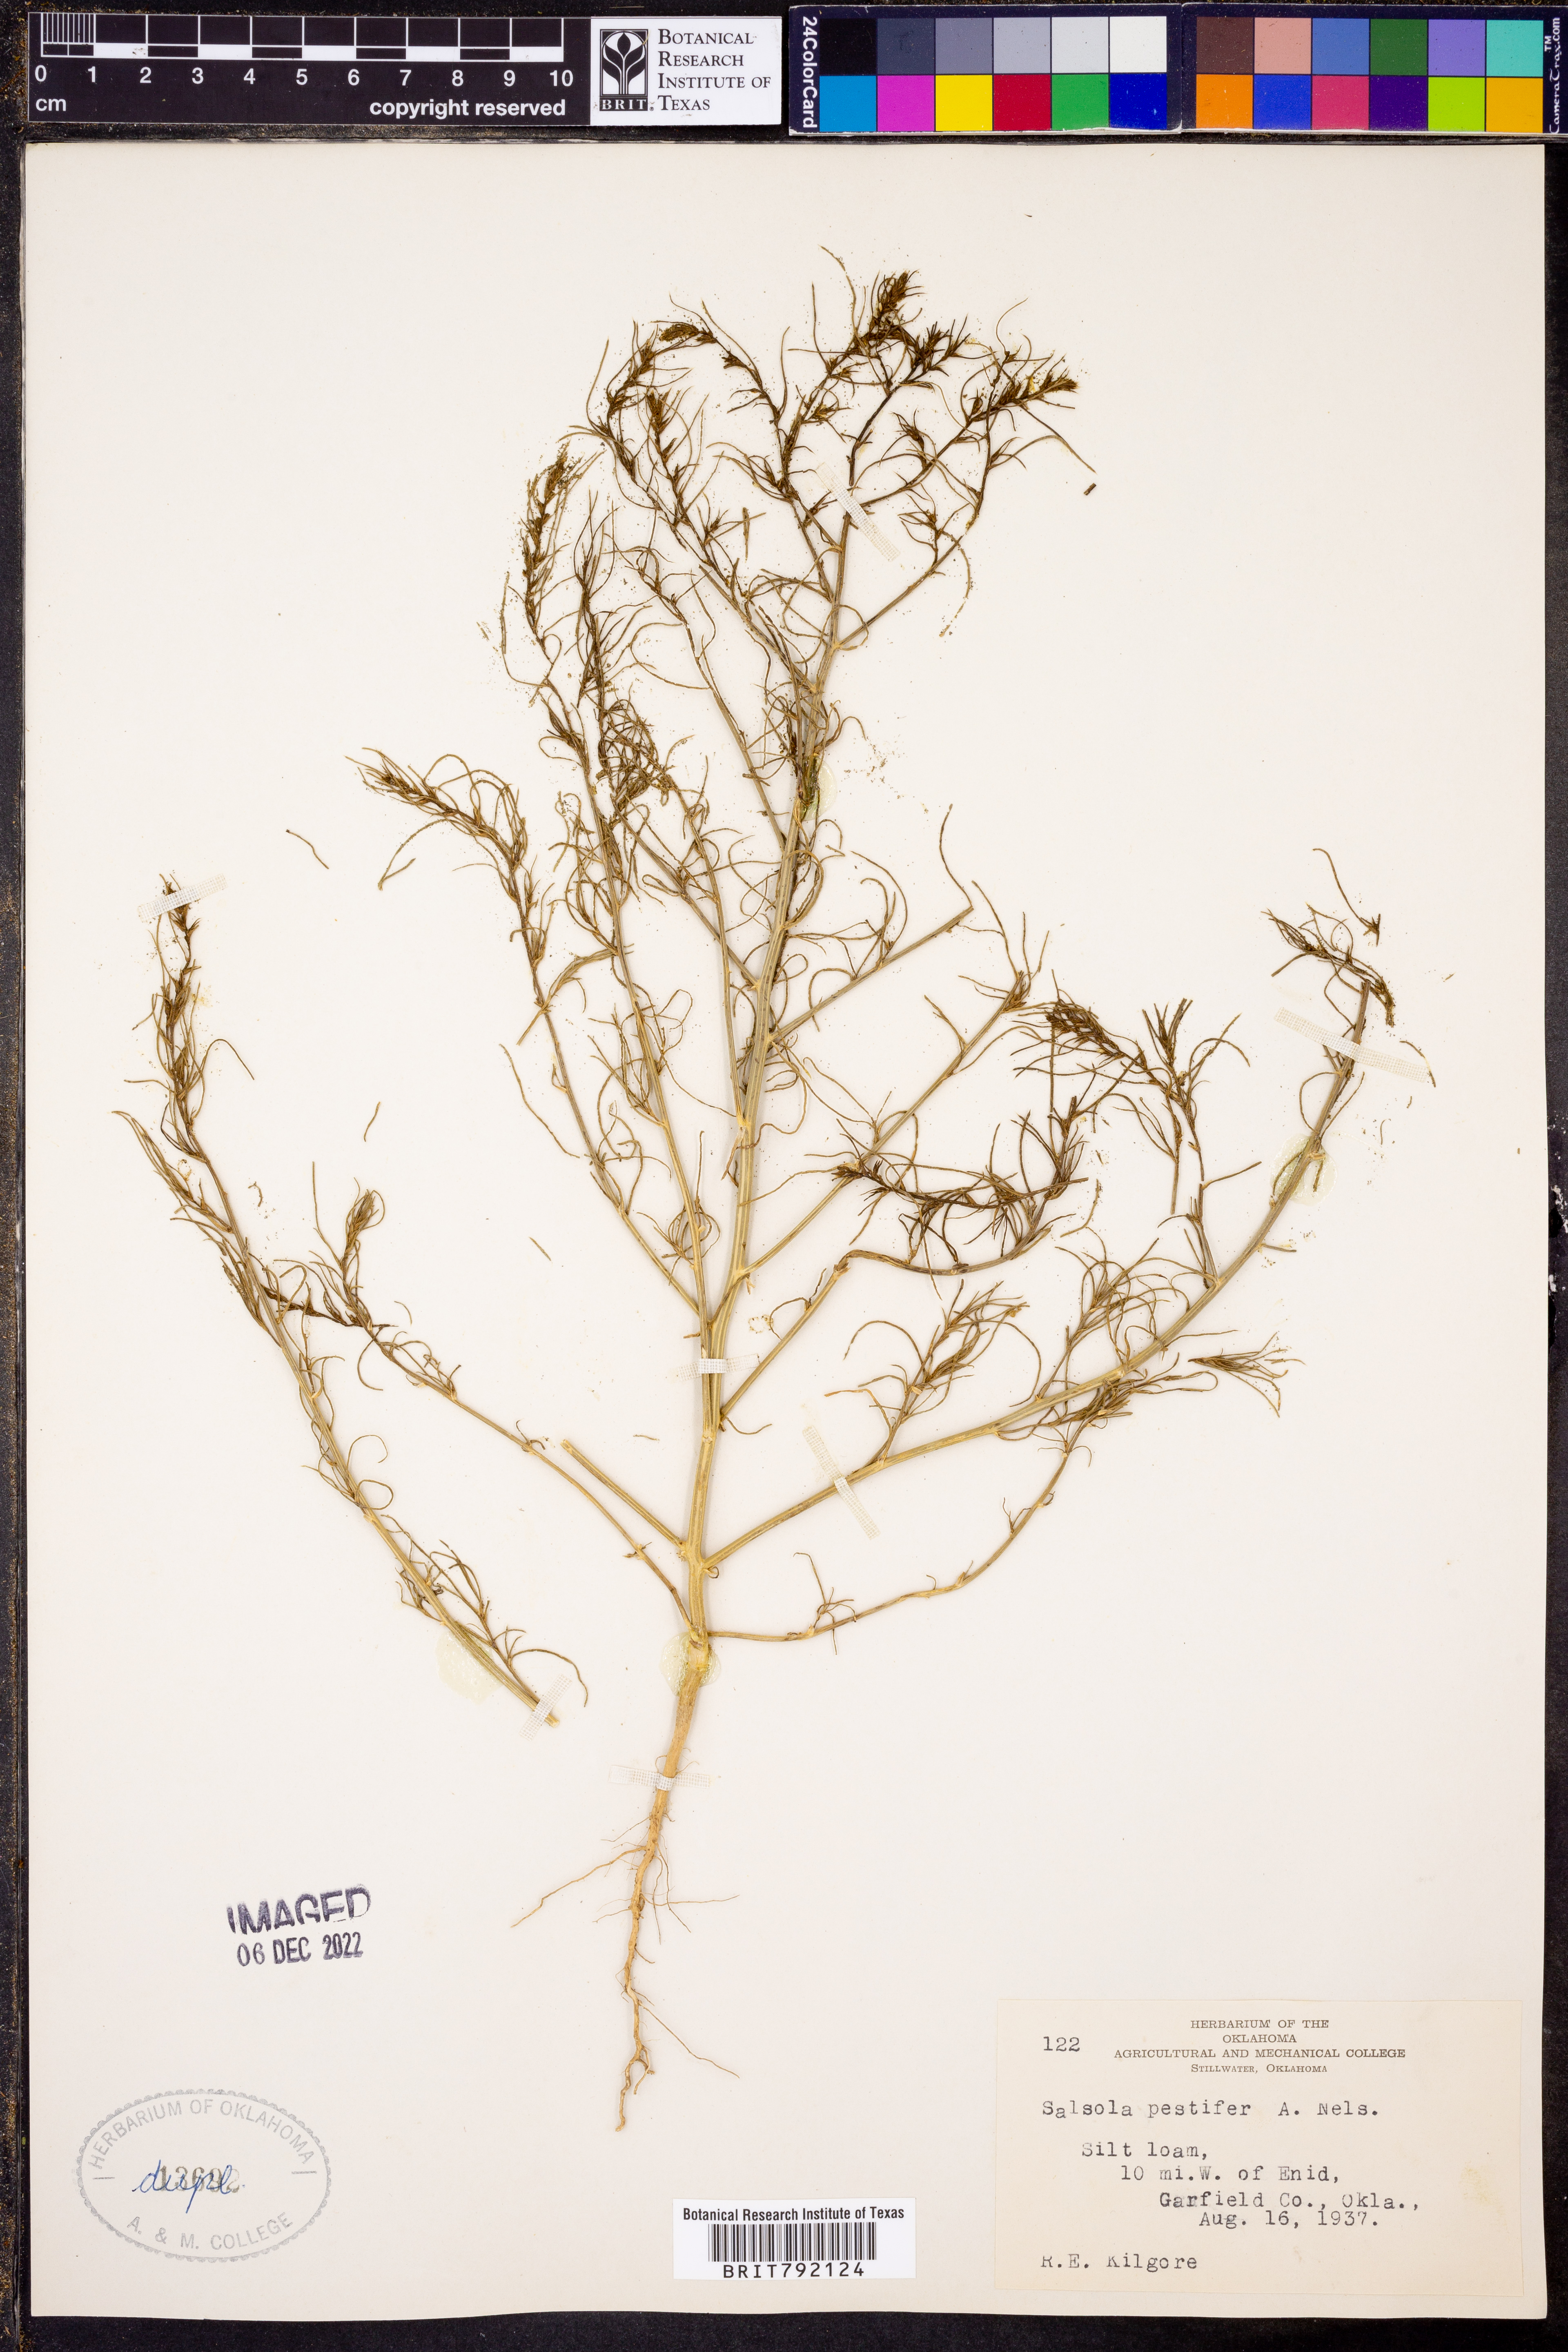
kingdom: Plantae
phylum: Tracheophyta
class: Magnoliopsida
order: Caryophyllales
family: Amaranthaceae
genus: Salsola
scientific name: Salsola tragus
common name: Prickly russian thistle
